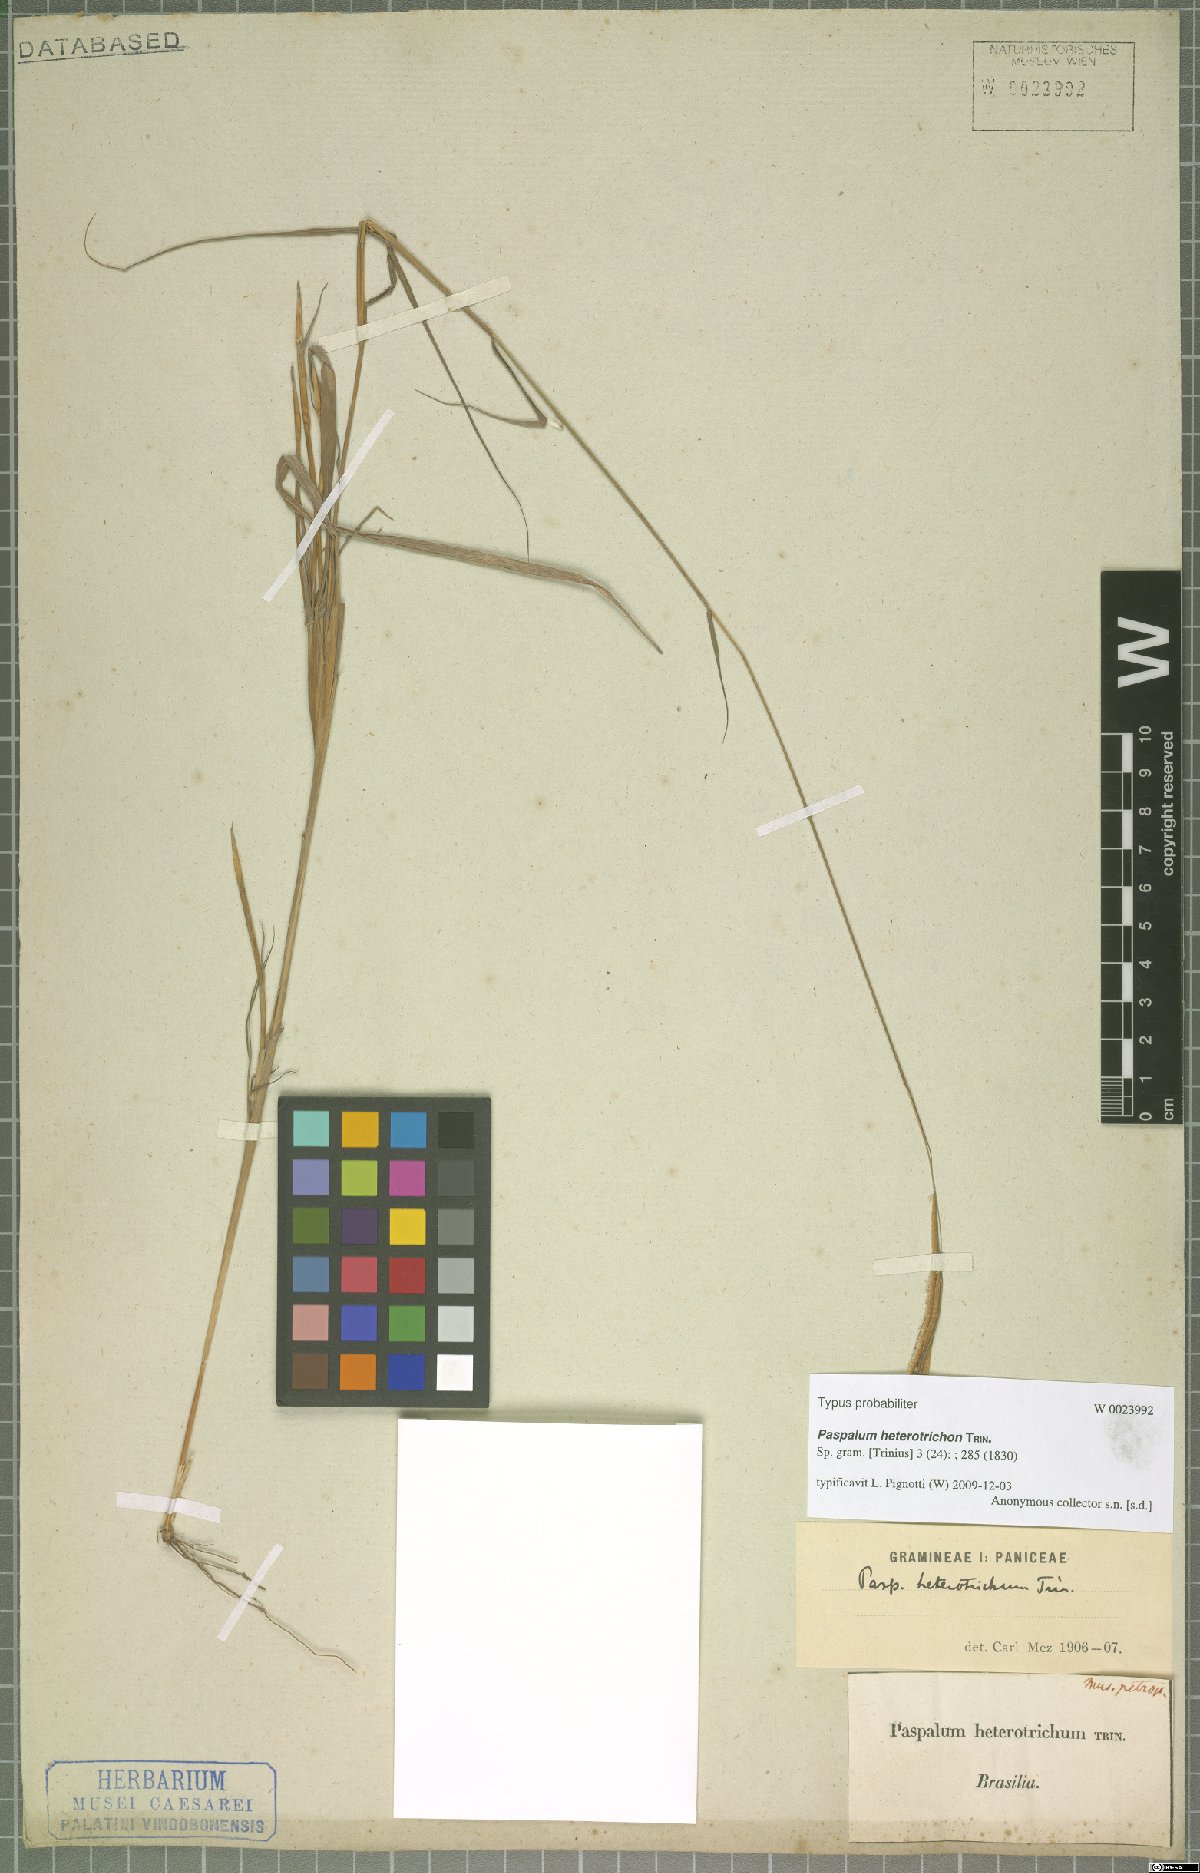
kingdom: Plantae
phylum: Tracheophyta
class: Liliopsida
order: Poales
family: Poaceae
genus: Paspalum
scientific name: Paspalum heterotrichon
